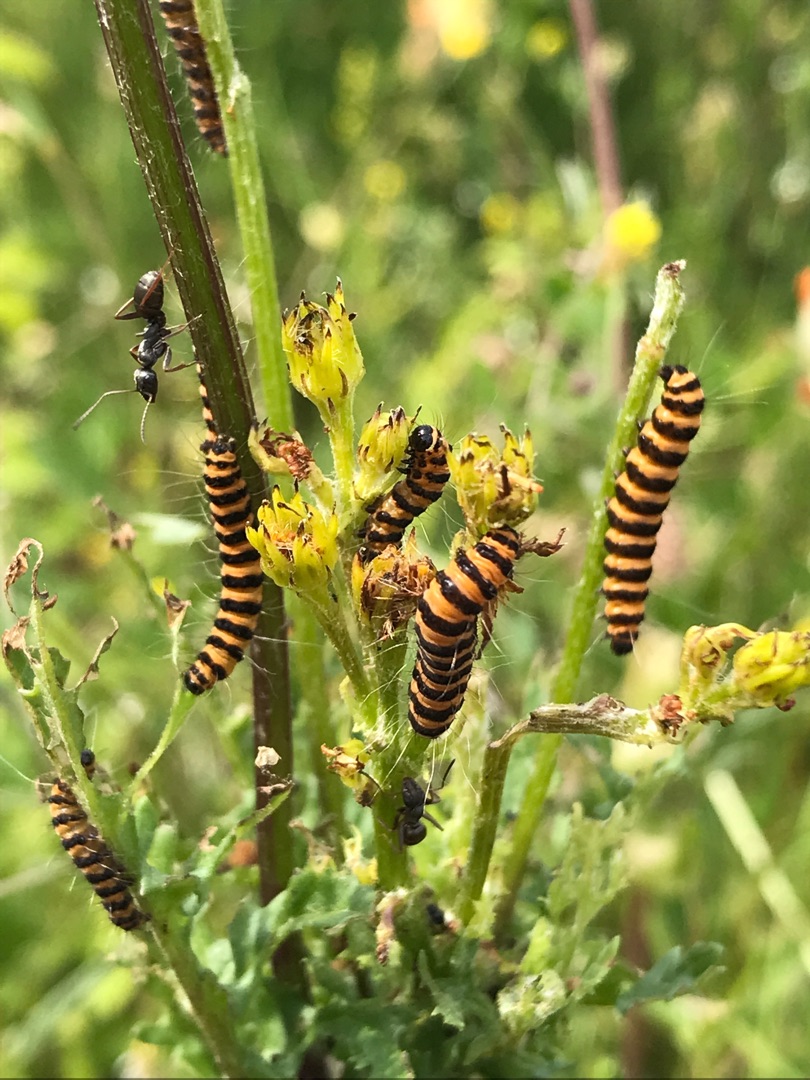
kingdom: Animalia
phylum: Arthropoda
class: Insecta
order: Lepidoptera
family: Erebidae
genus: Tyria
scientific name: Tyria jacobaeae
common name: Blodplet
